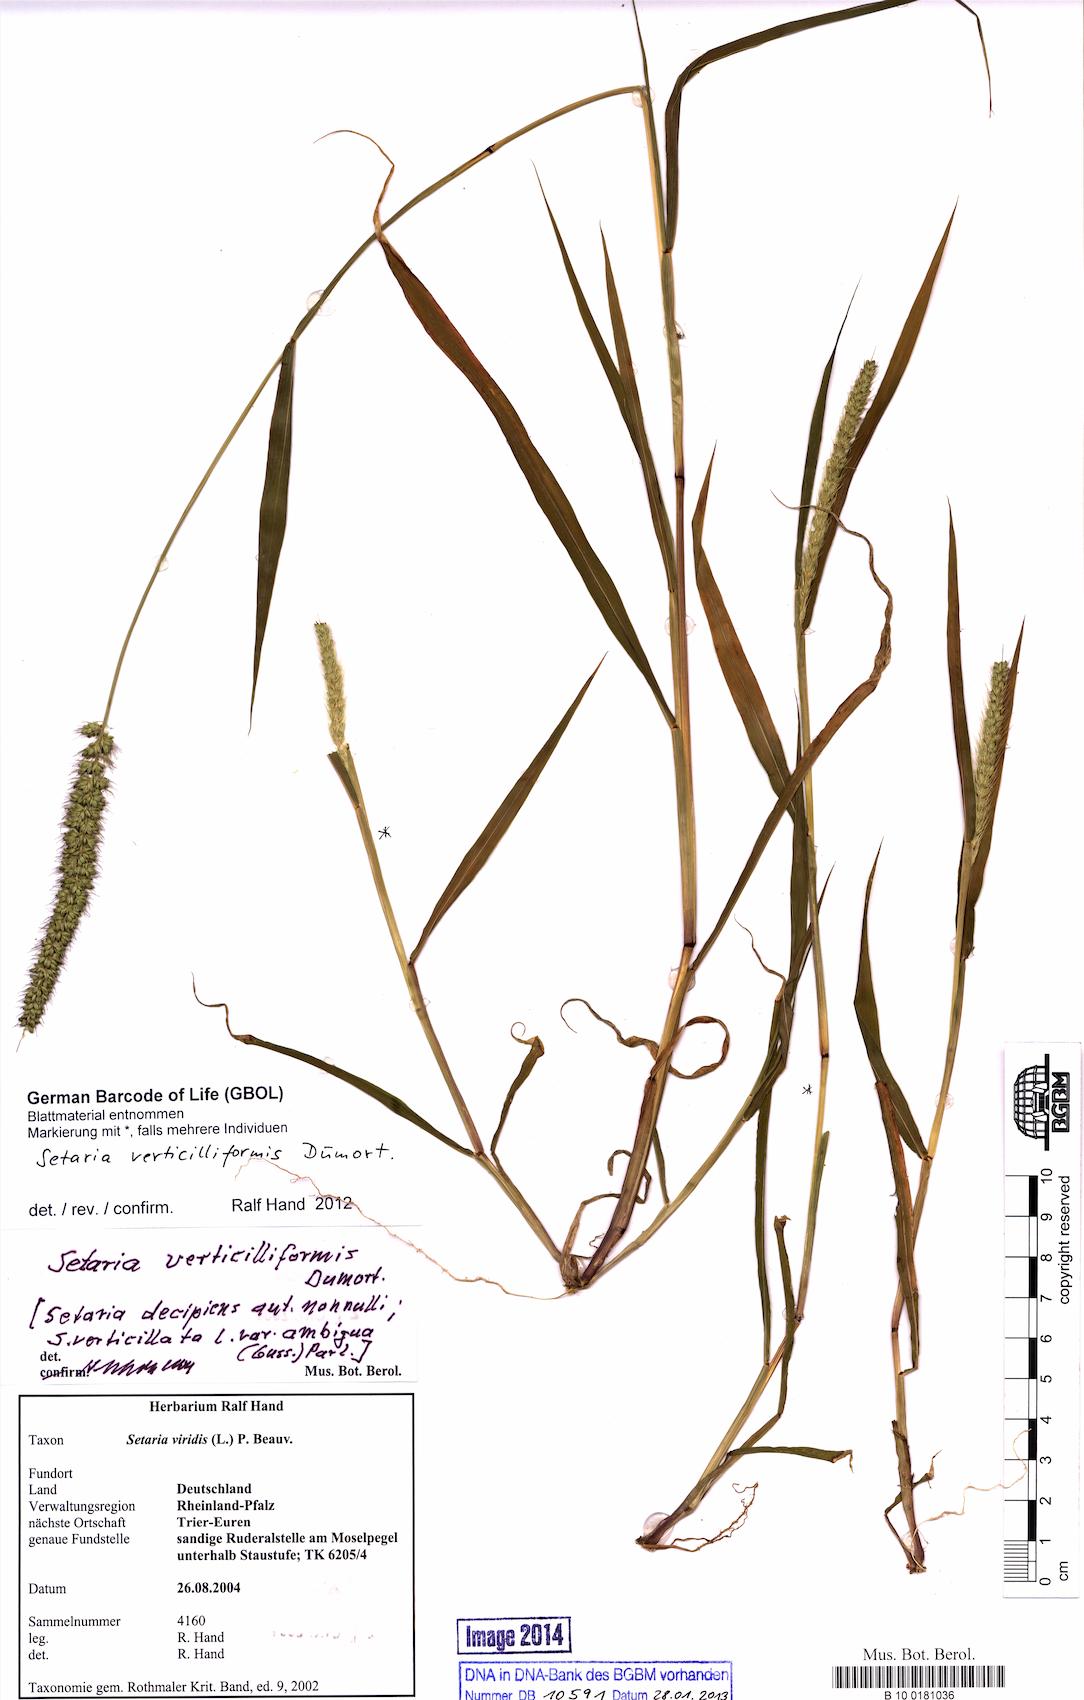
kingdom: Plantae
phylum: Tracheophyta
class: Liliopsida
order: Poales
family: Poaceae
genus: Setaria
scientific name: Setaria verticillata
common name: Hooked bristlegrass
